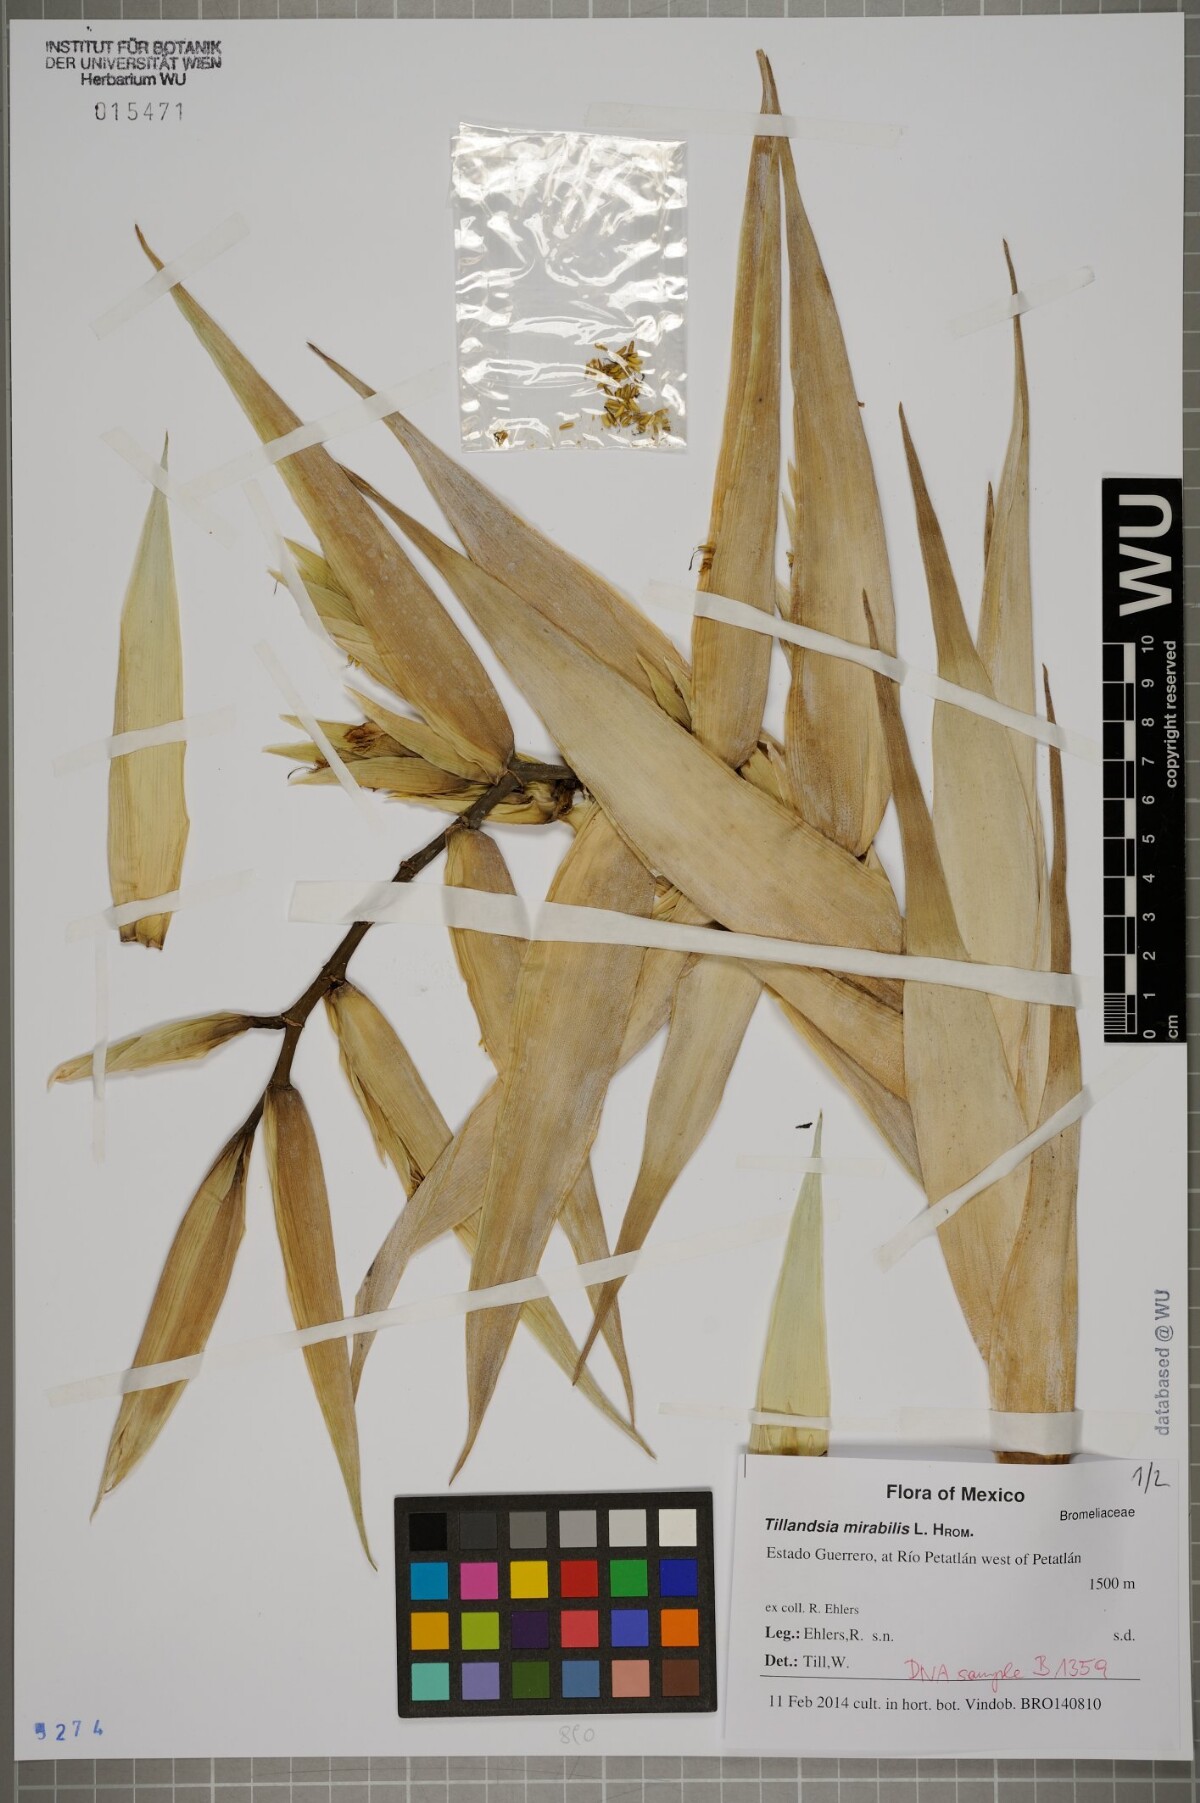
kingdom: Plantae
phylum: Tracheophyta
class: Liliopsida
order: Poales
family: Bromeliaceae
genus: Tillandsia
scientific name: Tillandsia mirabilis
